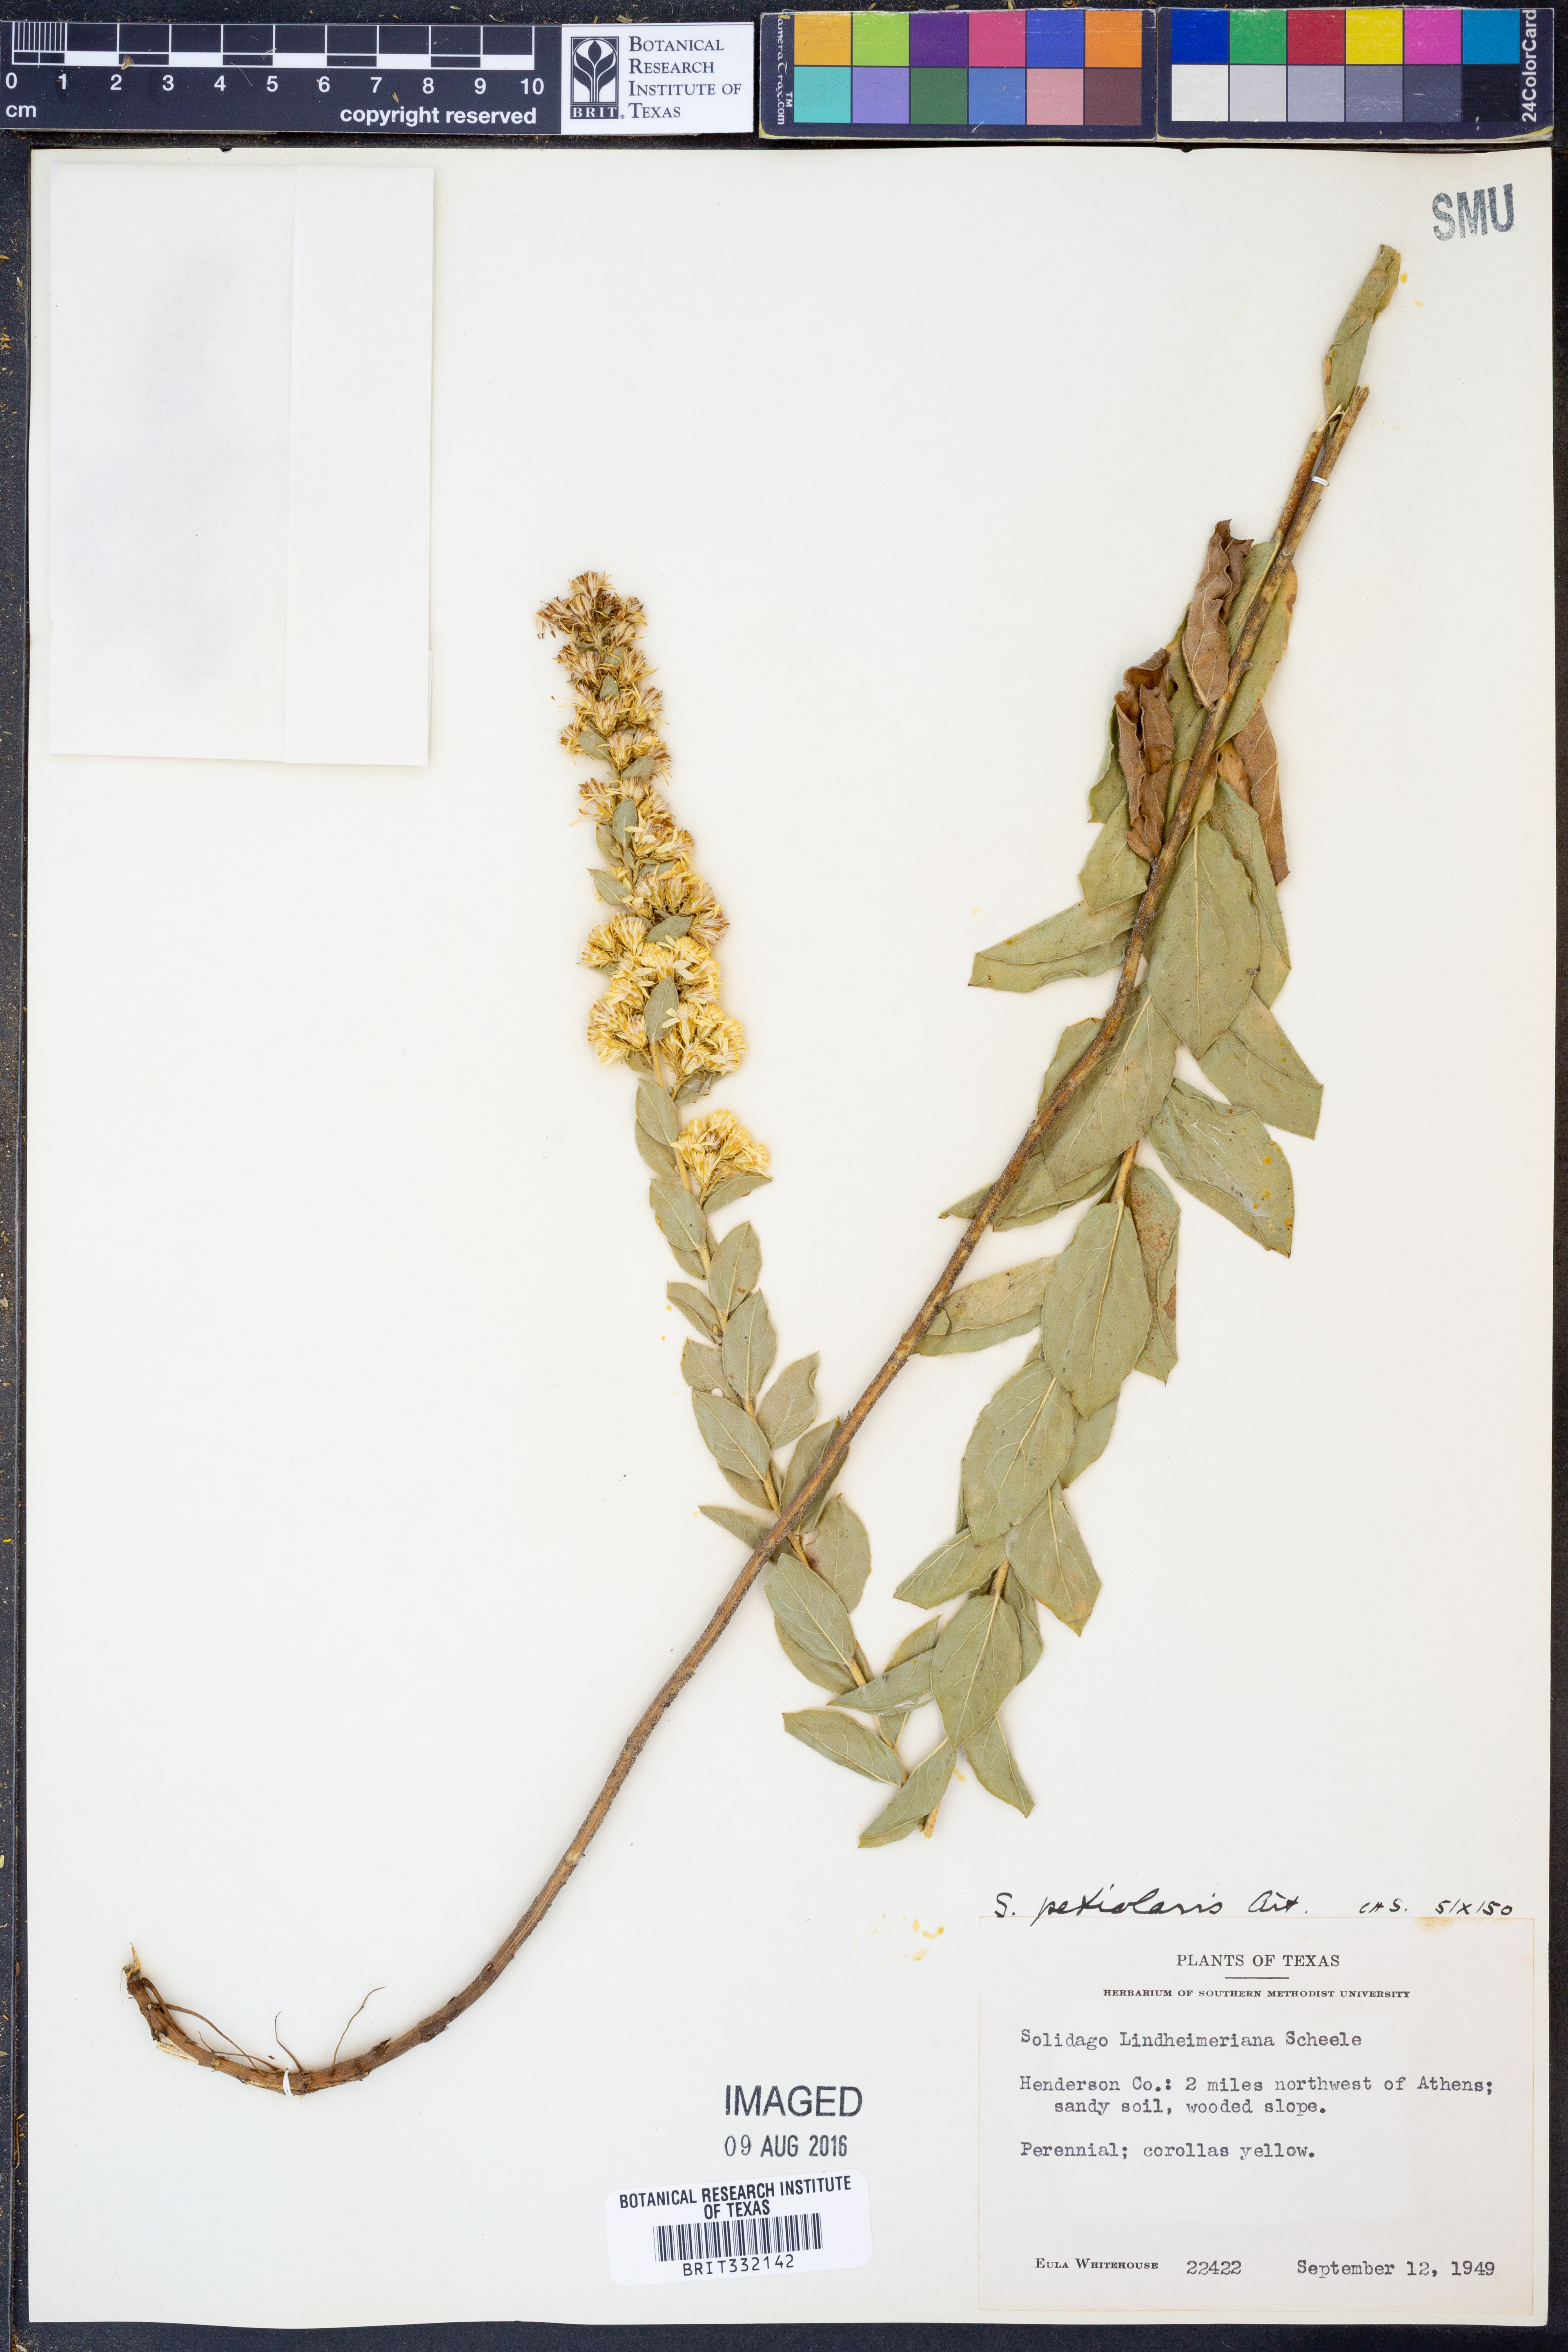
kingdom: Plantae
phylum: Tracheophyta
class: Magnoliopsida
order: Asterales
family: Asteraceae
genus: Solidago
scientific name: Solidago petiolaris
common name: Downy ragged goldenrod
